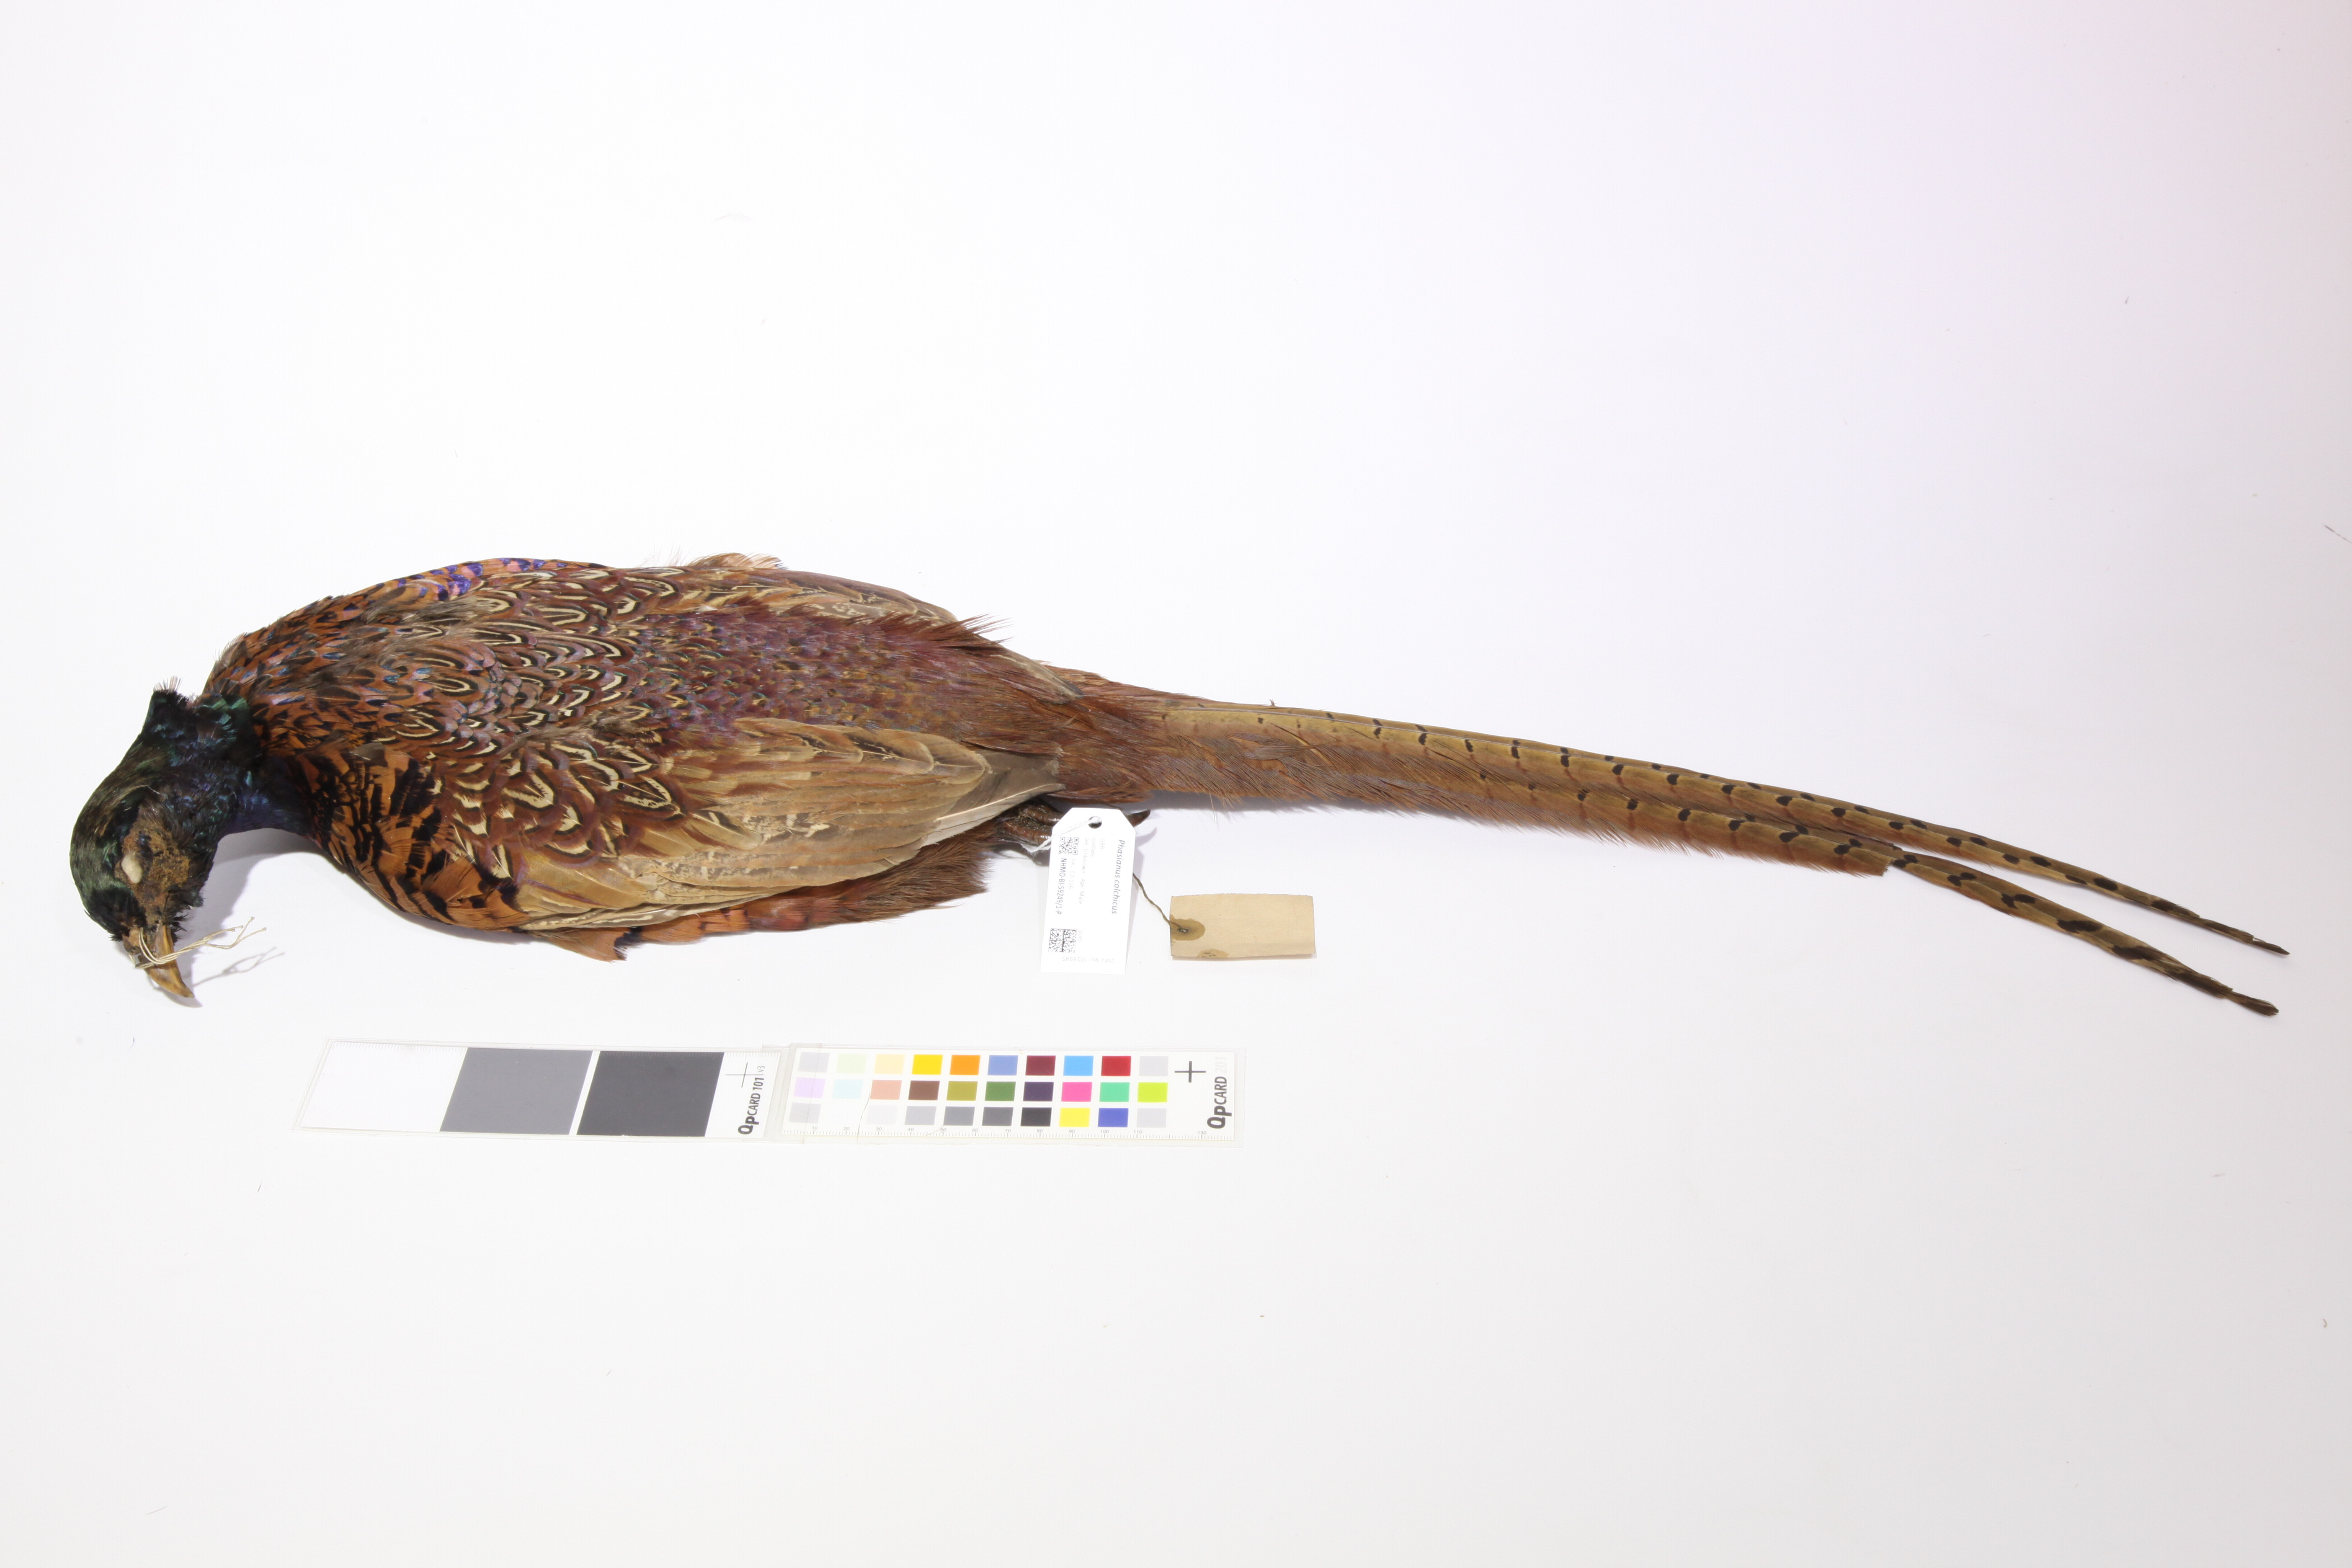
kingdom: Animalia
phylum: Chordata
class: Aves
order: Galliformes
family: Phasianidae
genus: Phasianus
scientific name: Phasianus colchicus
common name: Common pheasant
